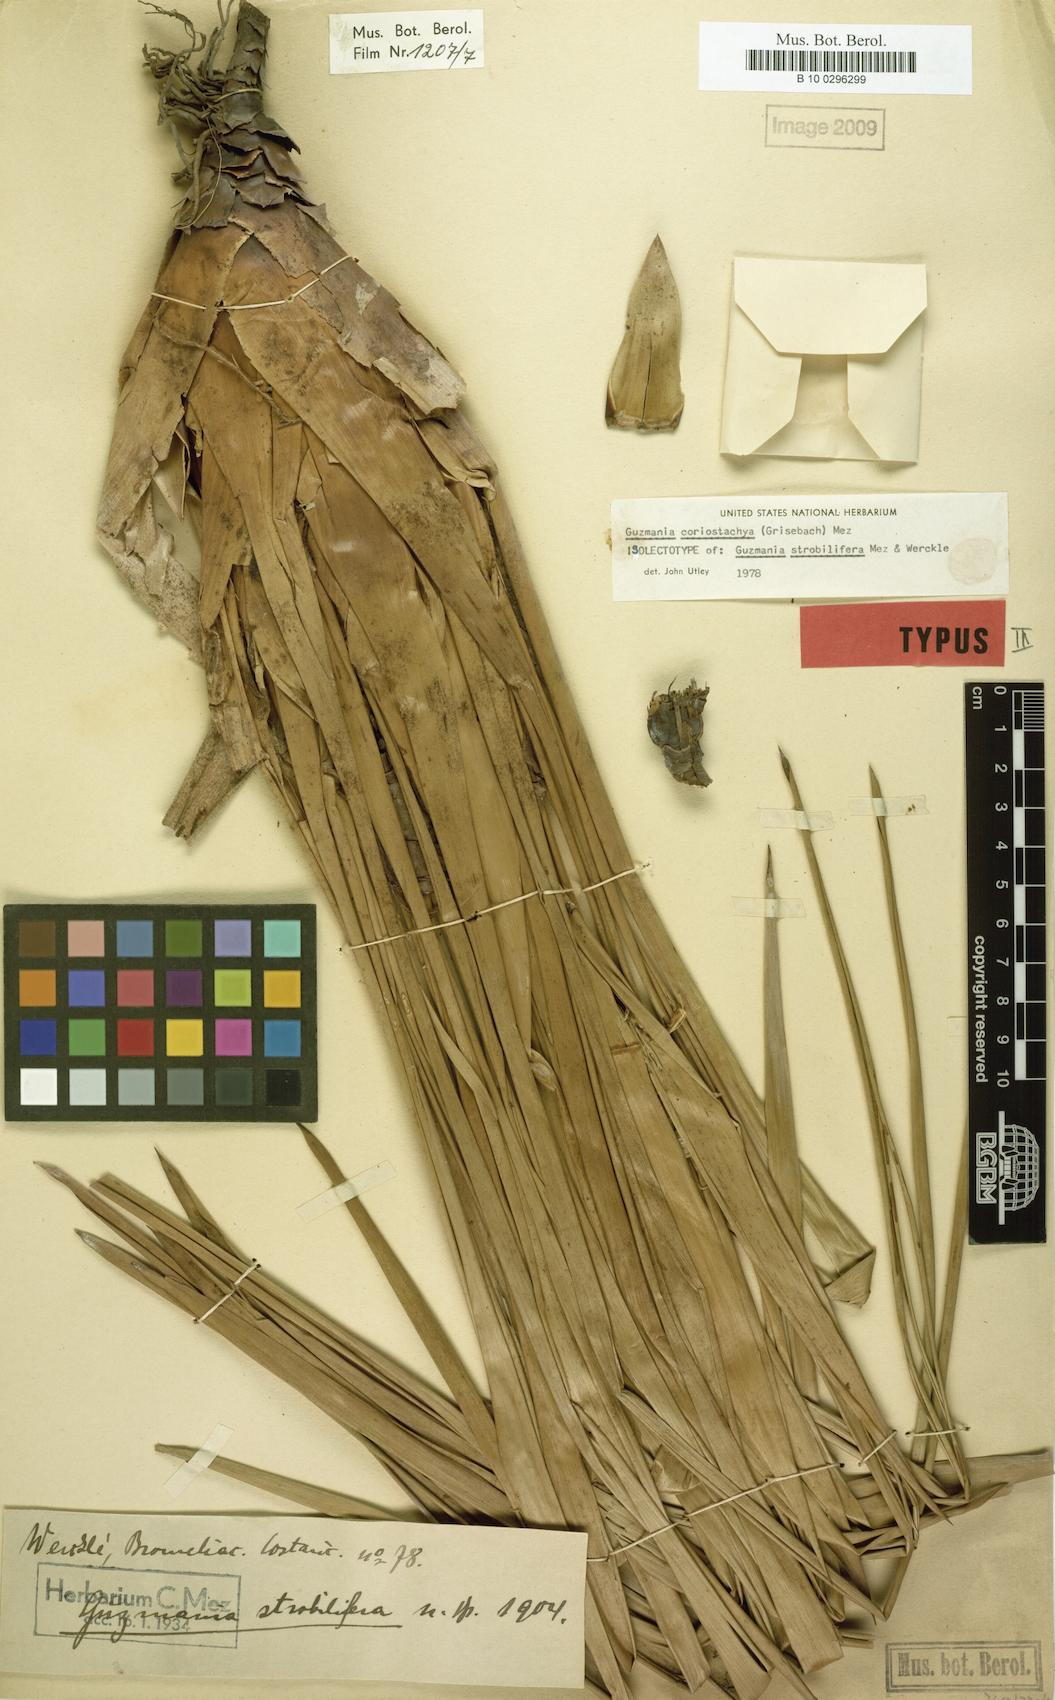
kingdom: Plantae
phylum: Tracheophyta
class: Liliopsida
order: Poales
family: Bromeliaceae
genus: Guzmania
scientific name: Guzmania coriostachya
